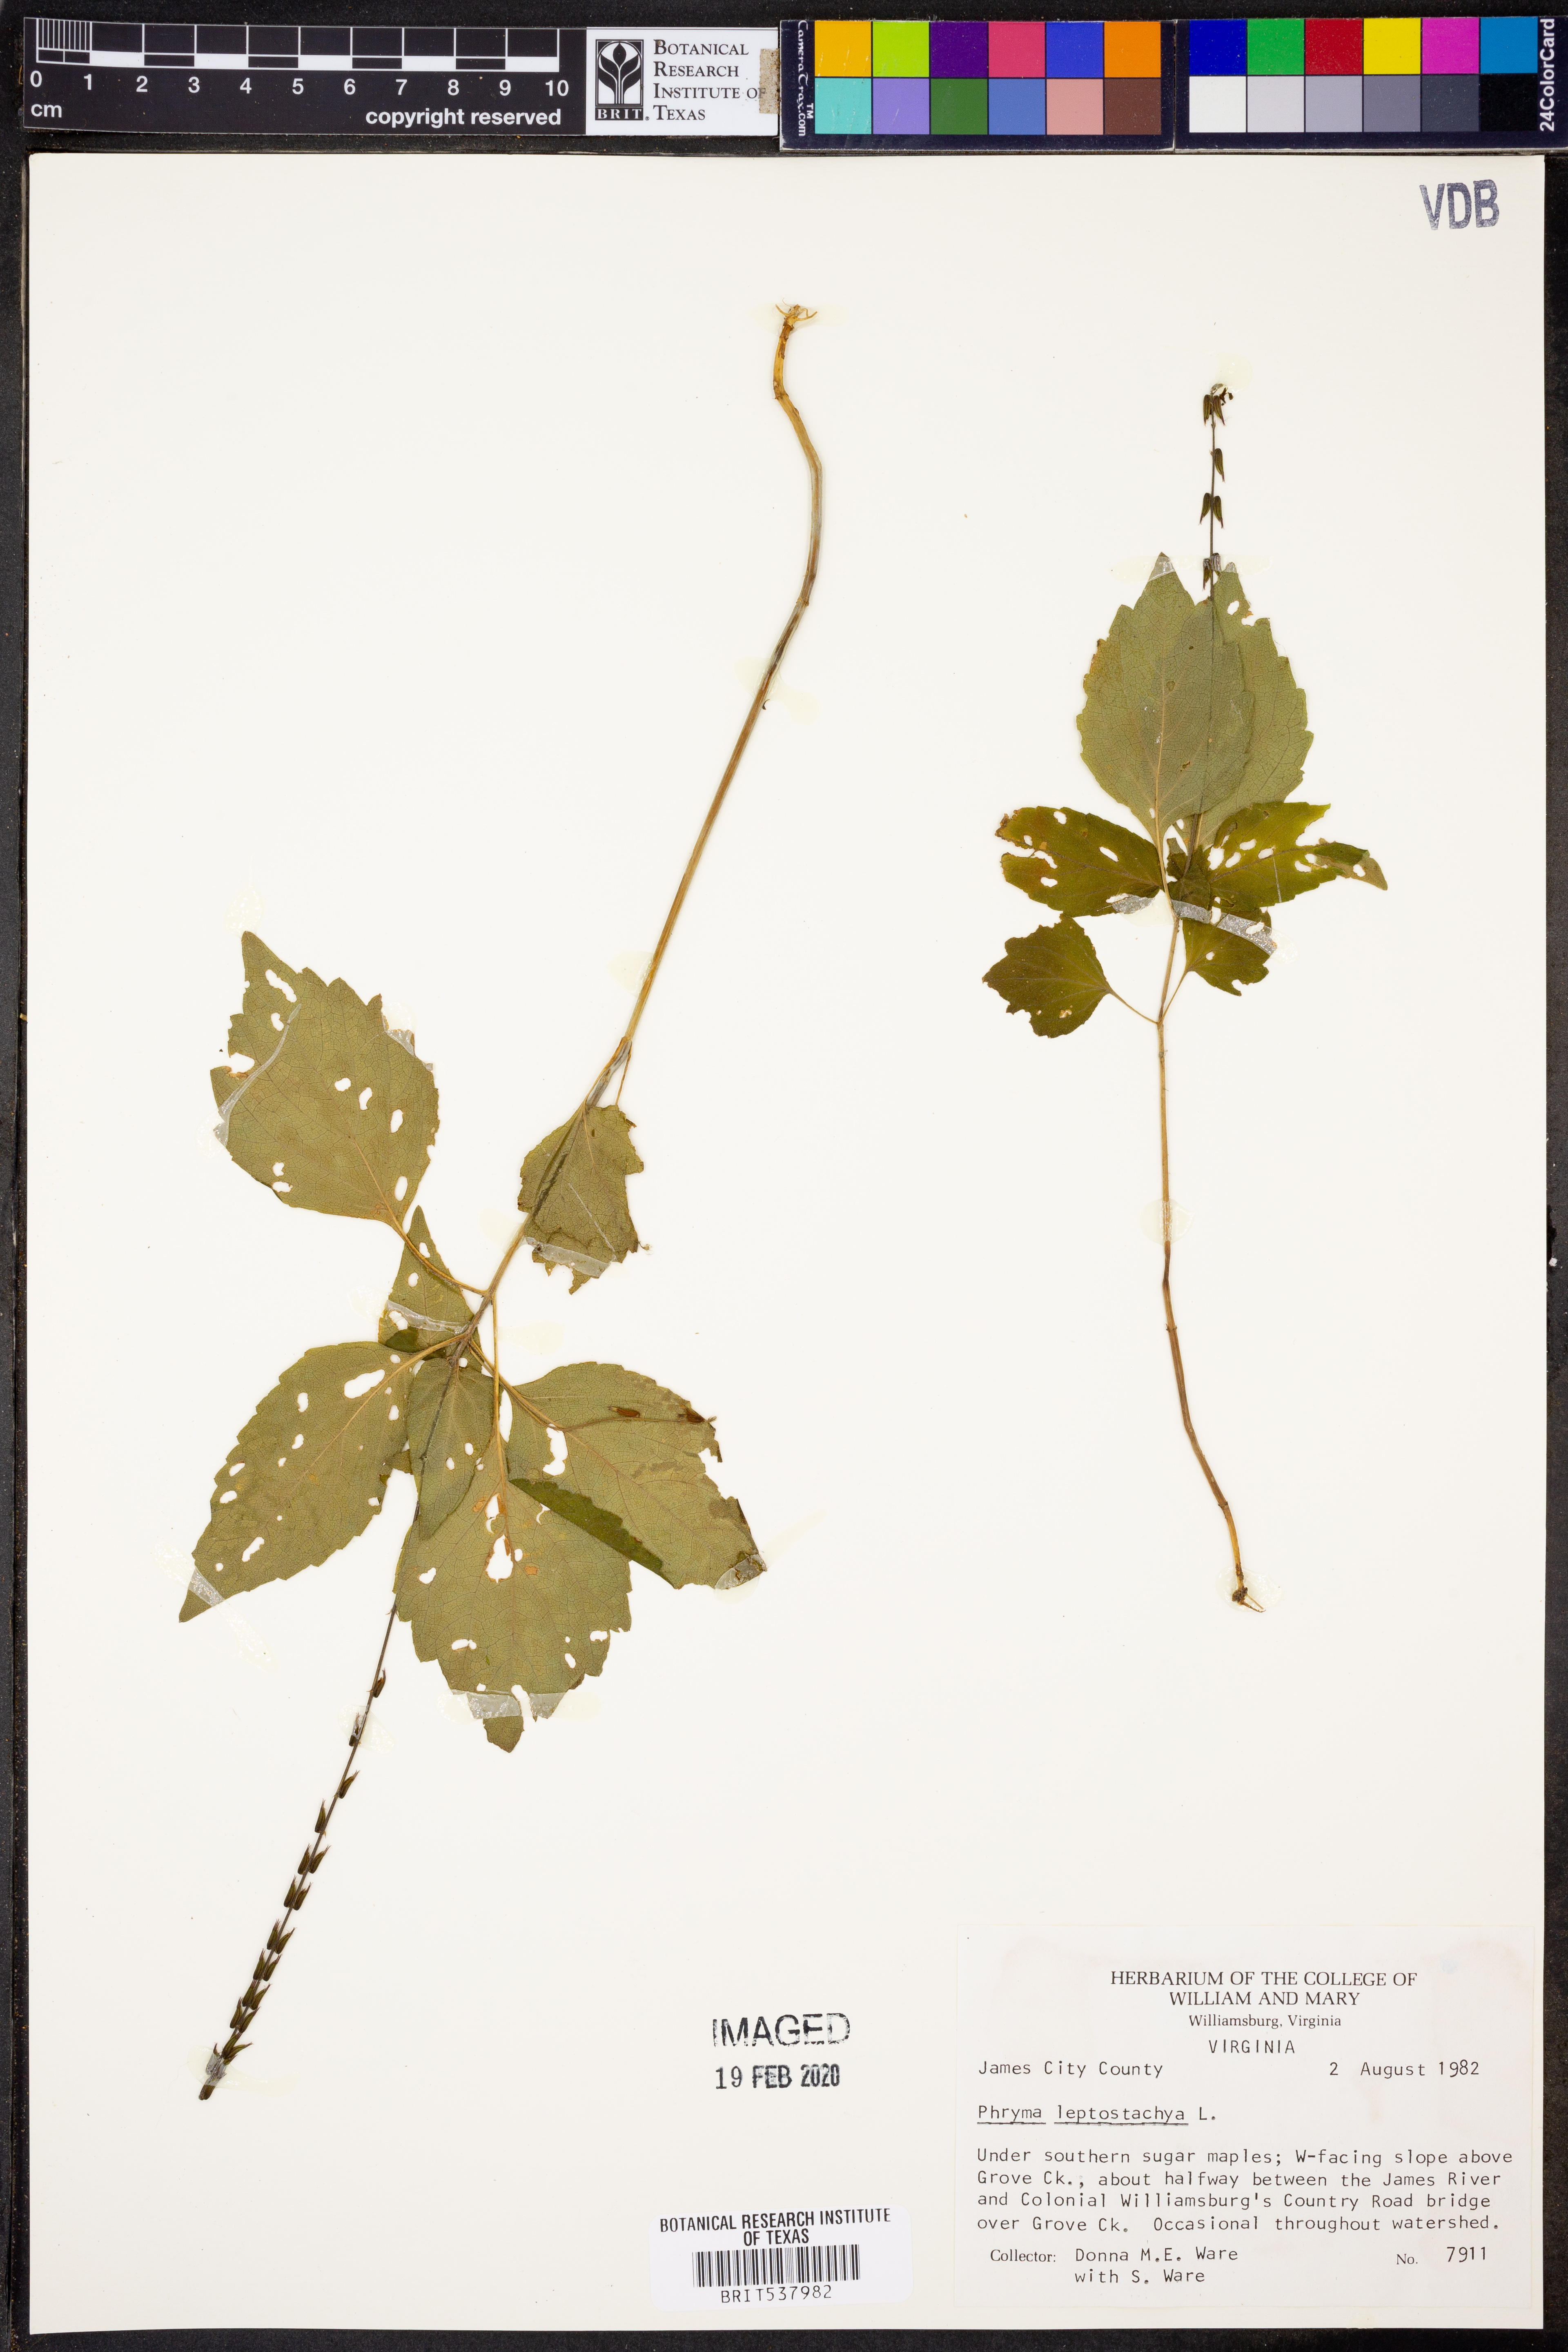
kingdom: Plantae
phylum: Tracheophyta
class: Magnoliopsida
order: Lamiales
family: Phrymaceae
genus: Phryma
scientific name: Phryma leptostachya
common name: American lopseed
